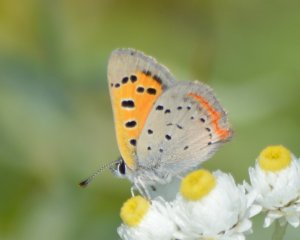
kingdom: Animalia
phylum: Arthropoda
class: Insecta
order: Lepidoptera
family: Lycaenidae
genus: Lycaena
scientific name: Lycaena phlaeas
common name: American Copper
